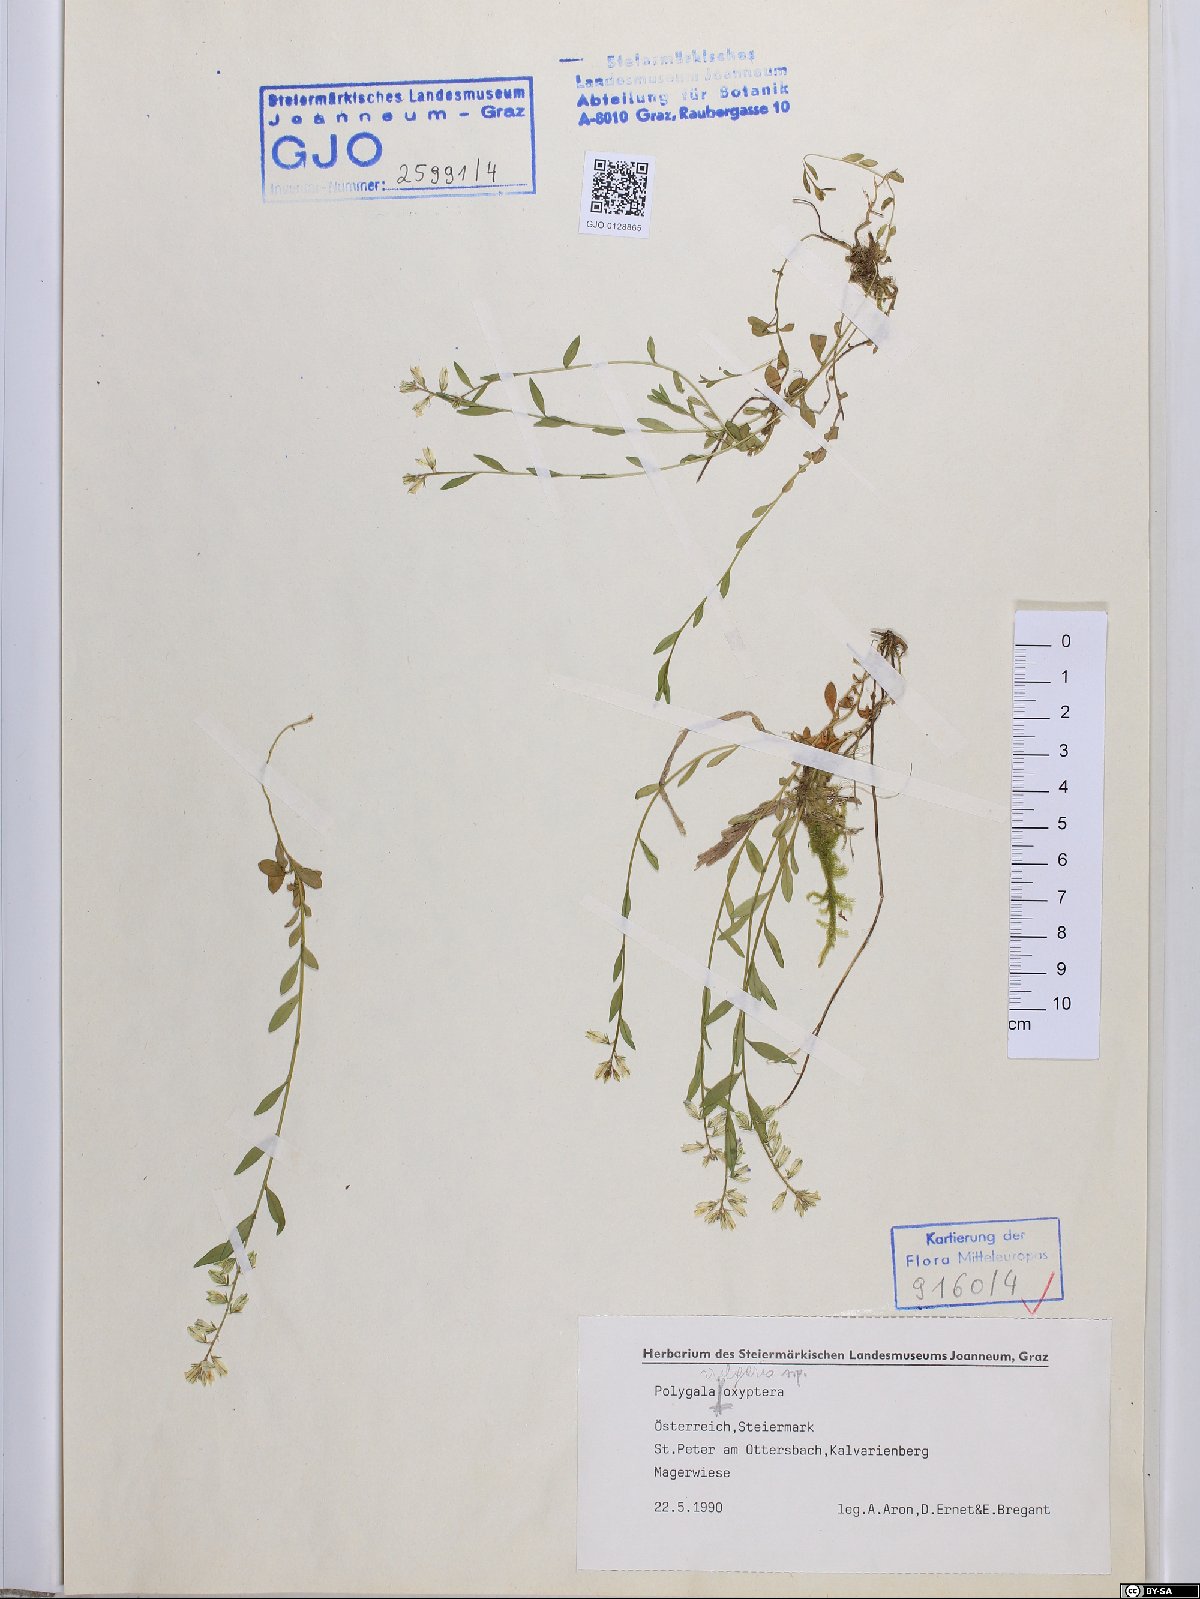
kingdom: Plantae
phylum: Tracheophyta
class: Magnoliopsida
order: Fabales
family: Polygalaceae
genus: Polygala
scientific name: Polygala vulgaris
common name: Common milkwort
